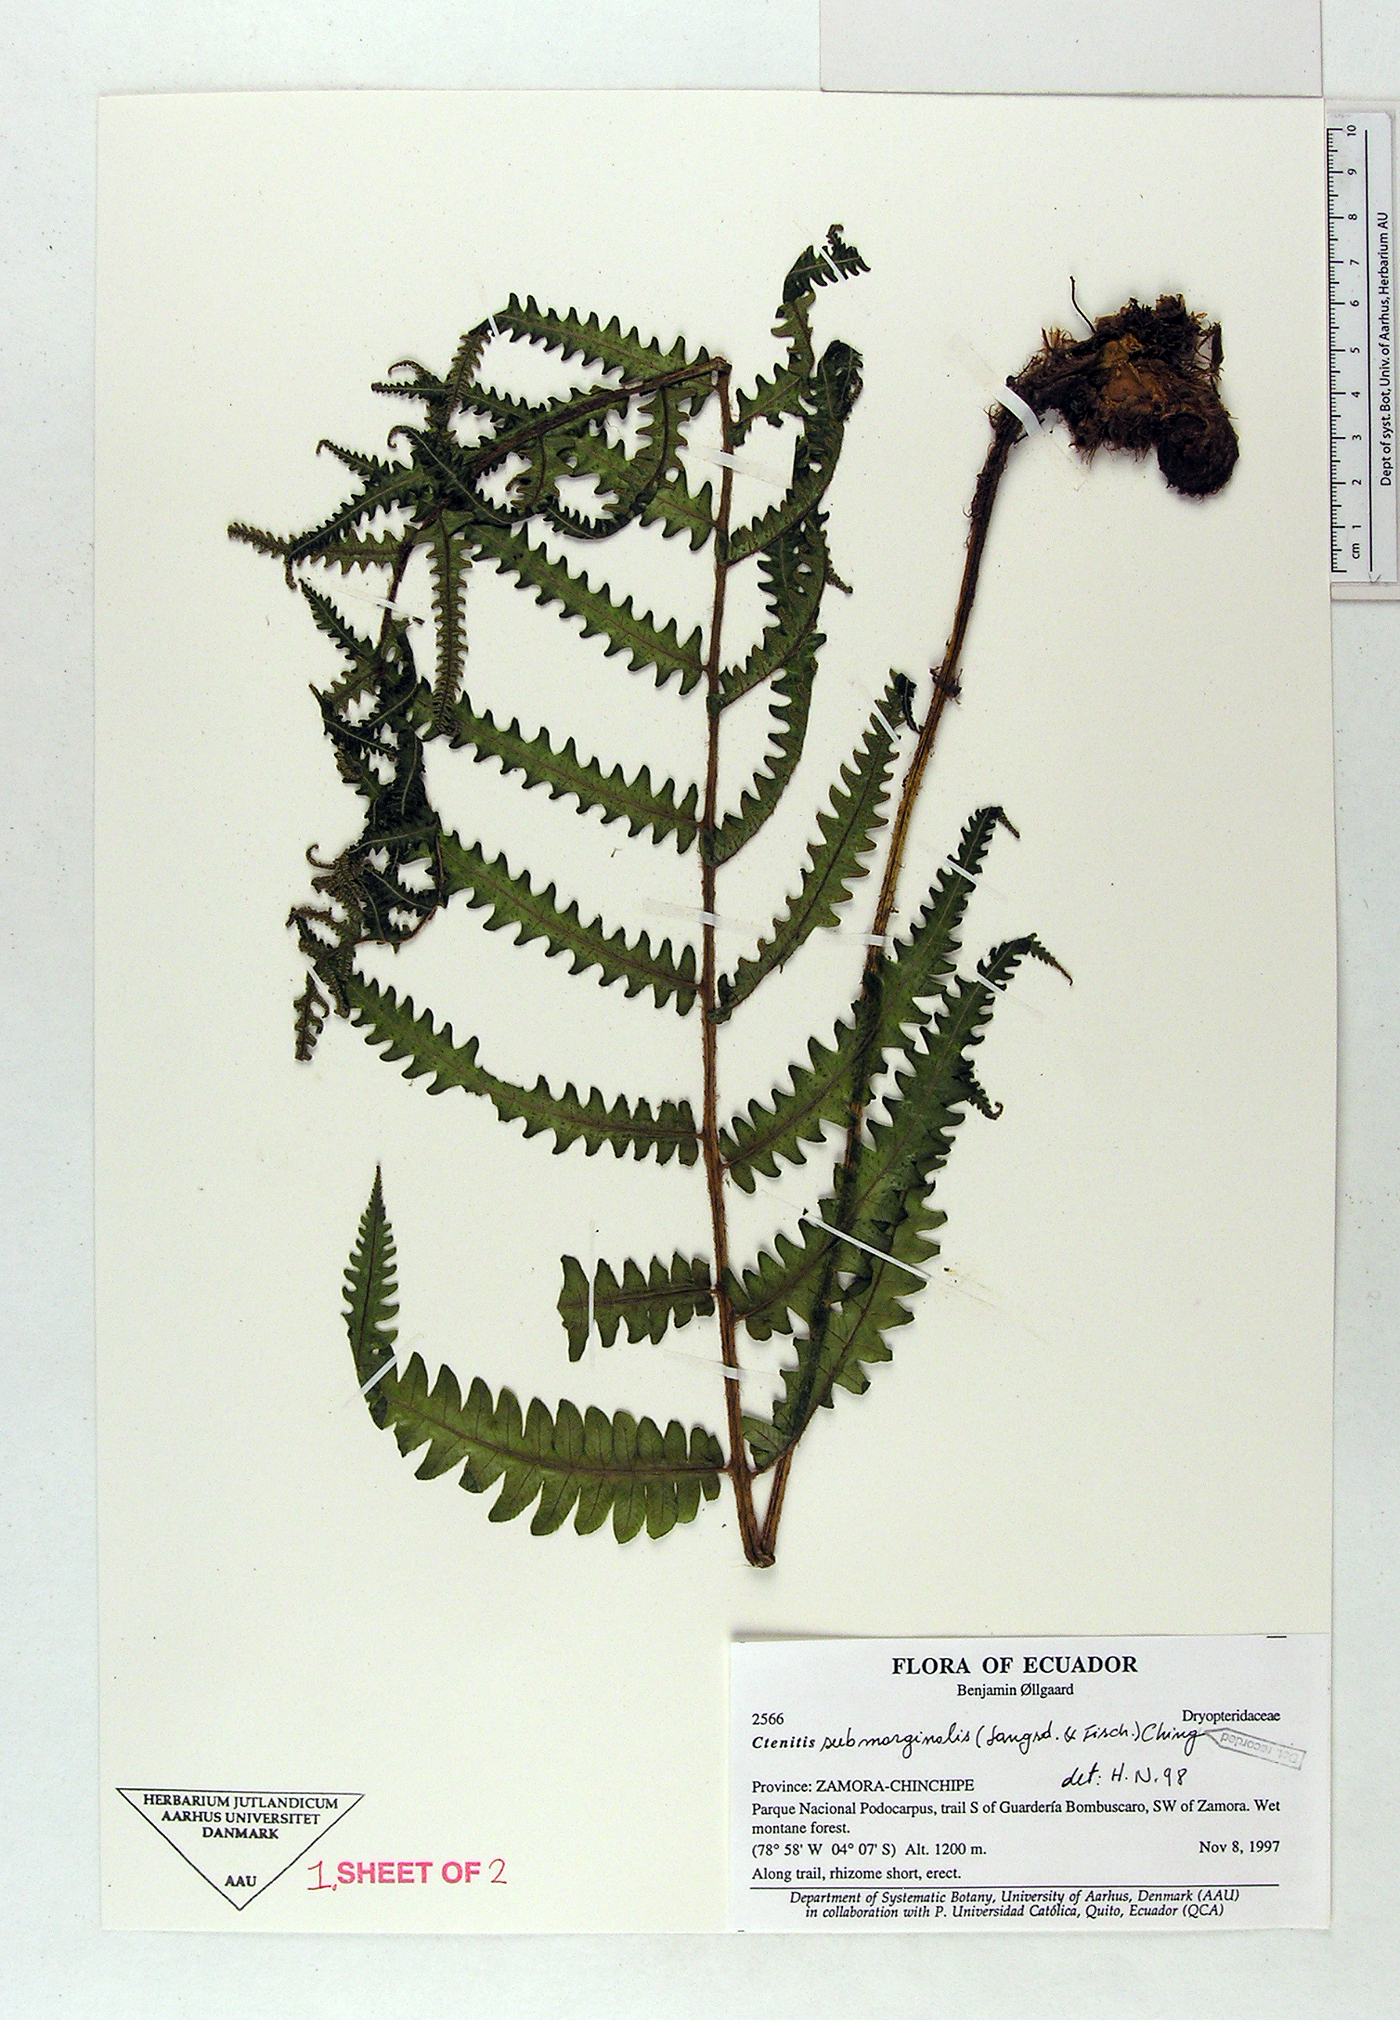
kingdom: Plantae
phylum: Tracheophyta
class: Polypodiopsida
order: Polypodiales
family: Dryopteridaceae
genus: Ctenitis
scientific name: Ctenitis submarginalis
